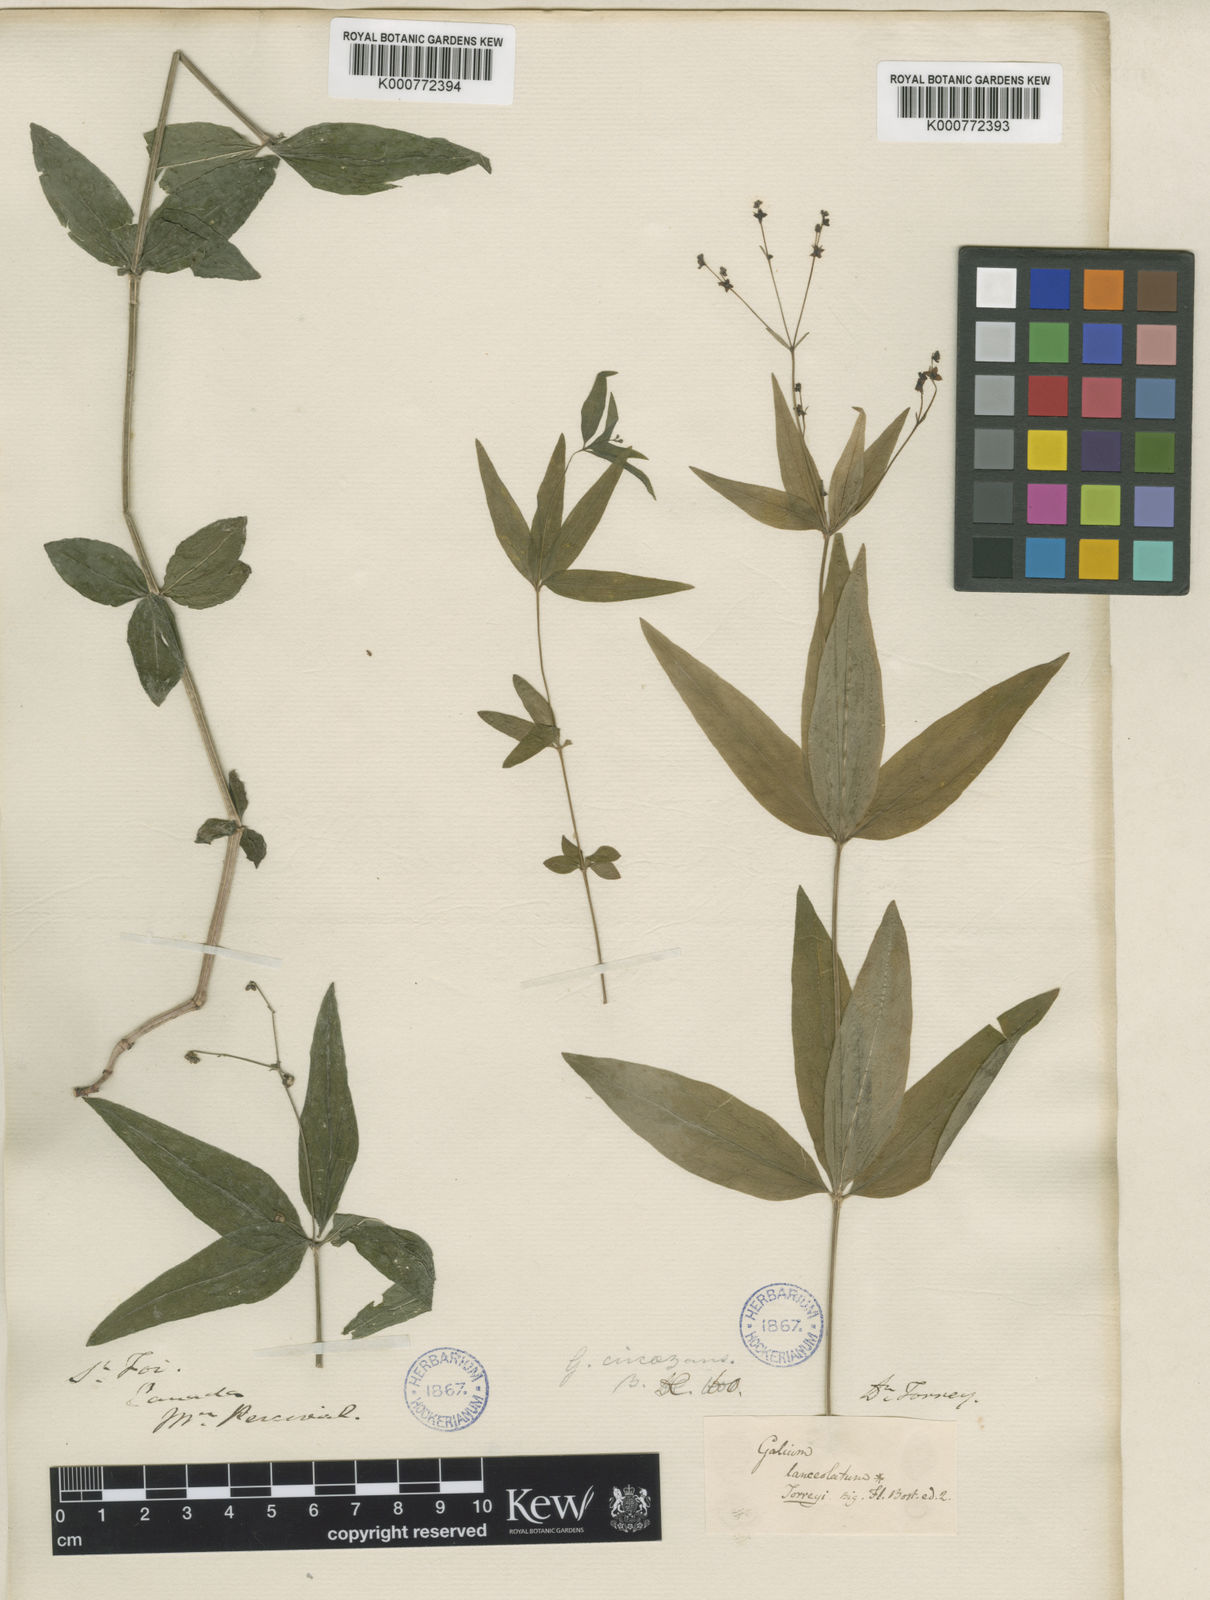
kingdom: Plantae
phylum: Tracheophyta
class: Magnoliopsida
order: Gentianales
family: Rubiaceae
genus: Galium
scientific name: Galium lanceolatum
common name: Lance-leaved wild licorice
